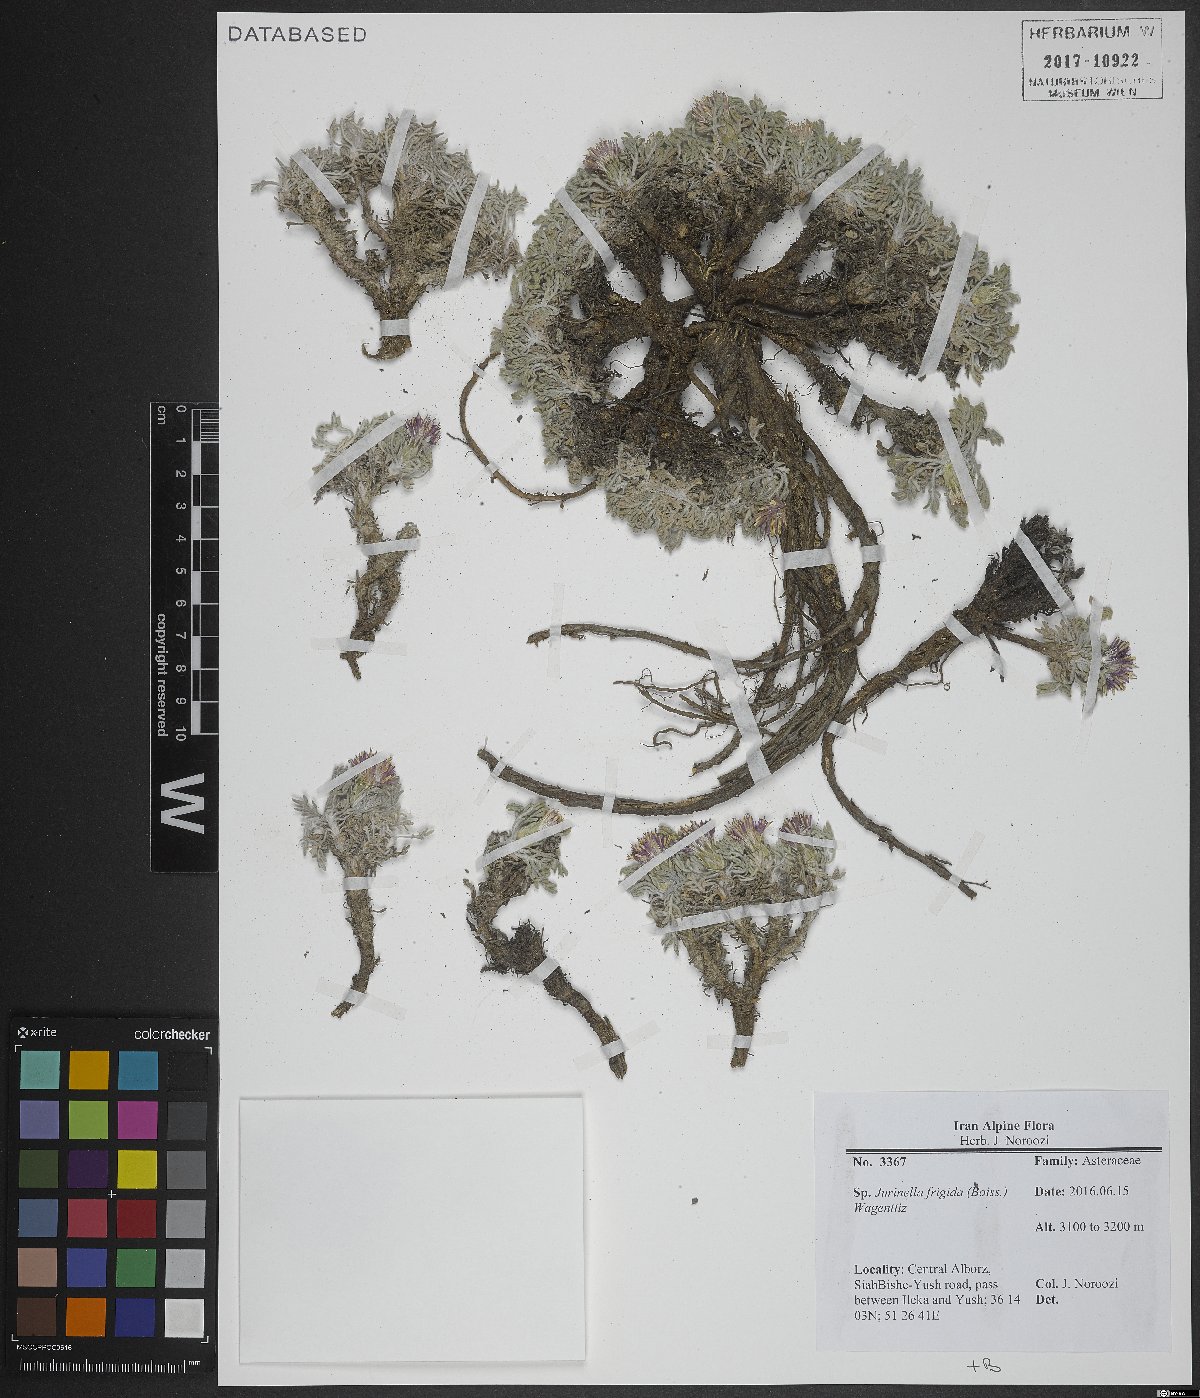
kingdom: Plantae
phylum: Tracheophyta
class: Magnoliopsida
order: Asterales
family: Asteraceae
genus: Jurinea
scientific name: Jurinea frigida
